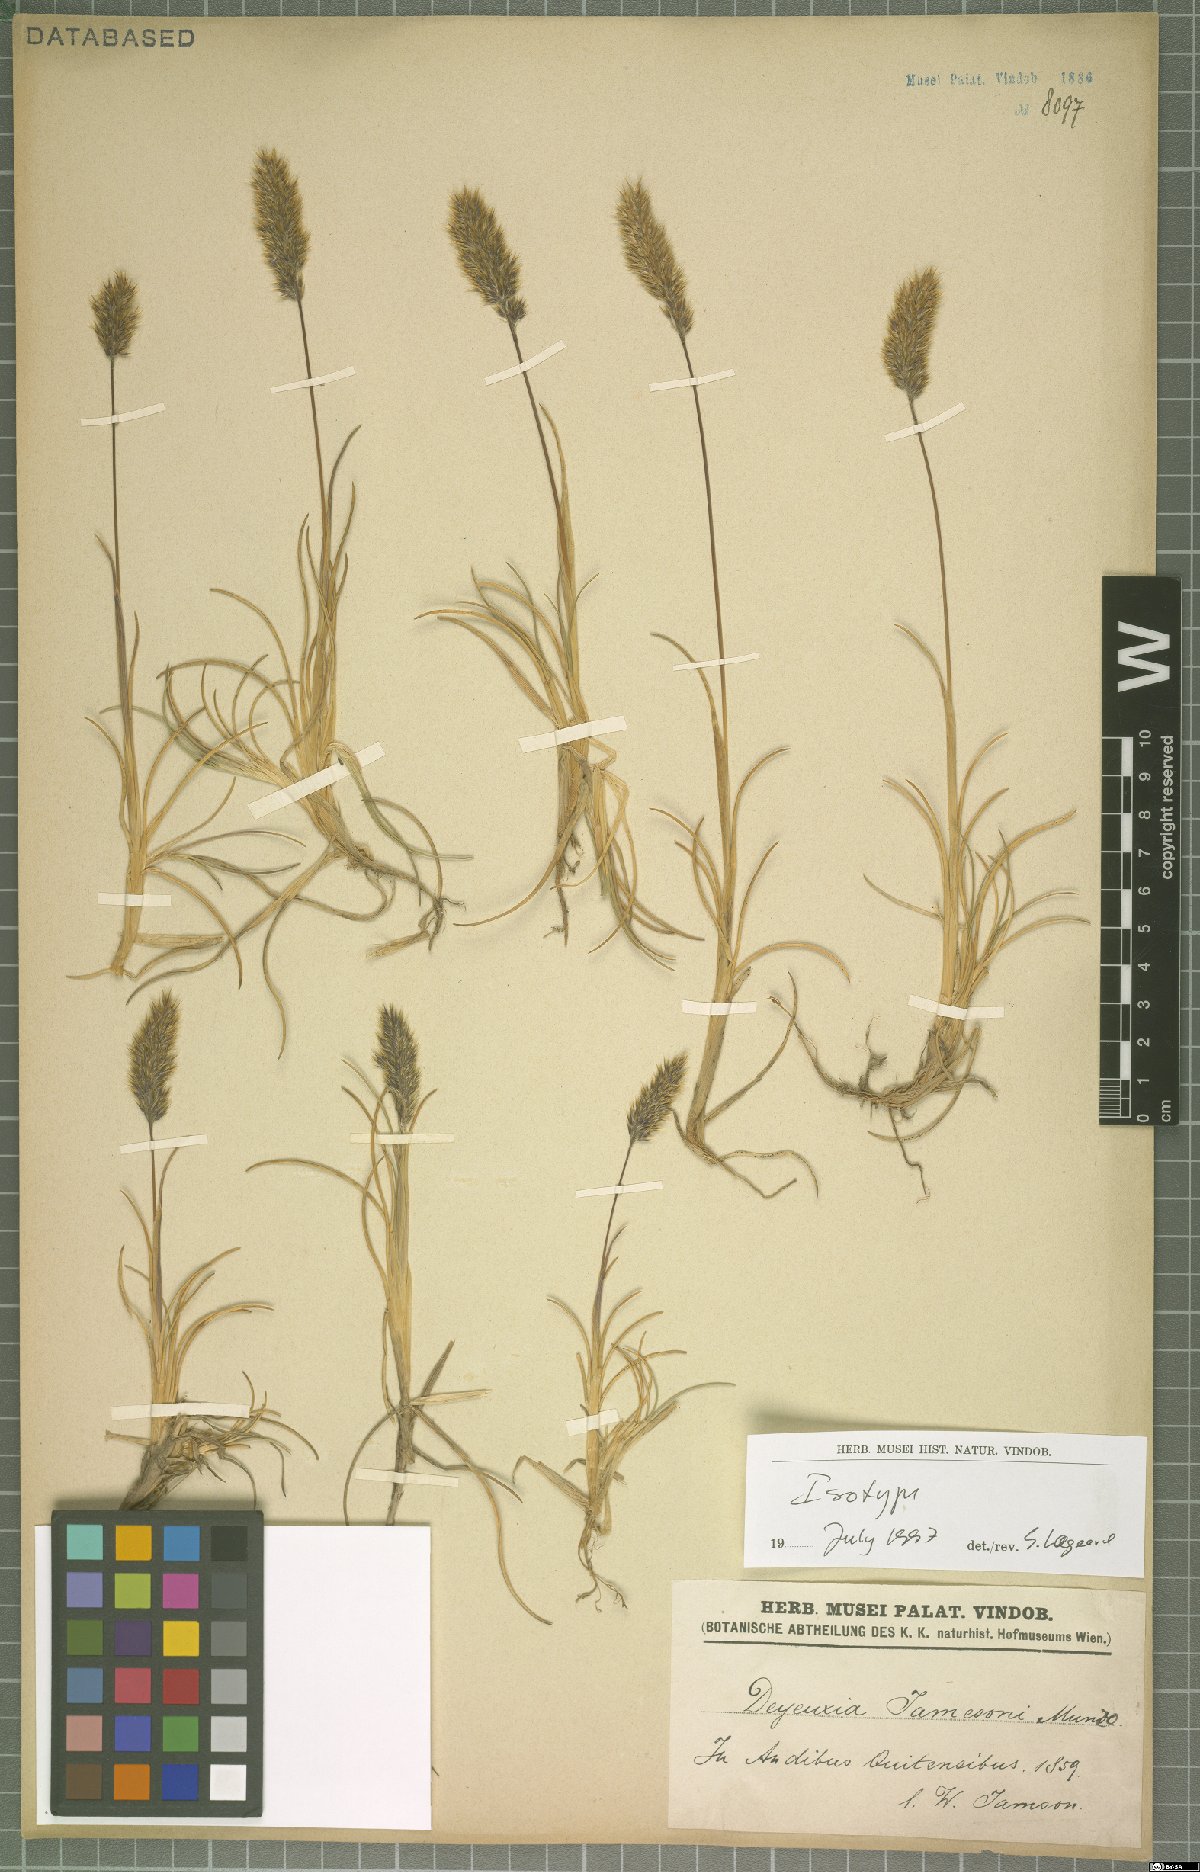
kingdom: Plantae
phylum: Tracheophyta
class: Liliopsida
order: Poales
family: Poaceae
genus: Cinnagrostis
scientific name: Cinnagrostis jamesonii
